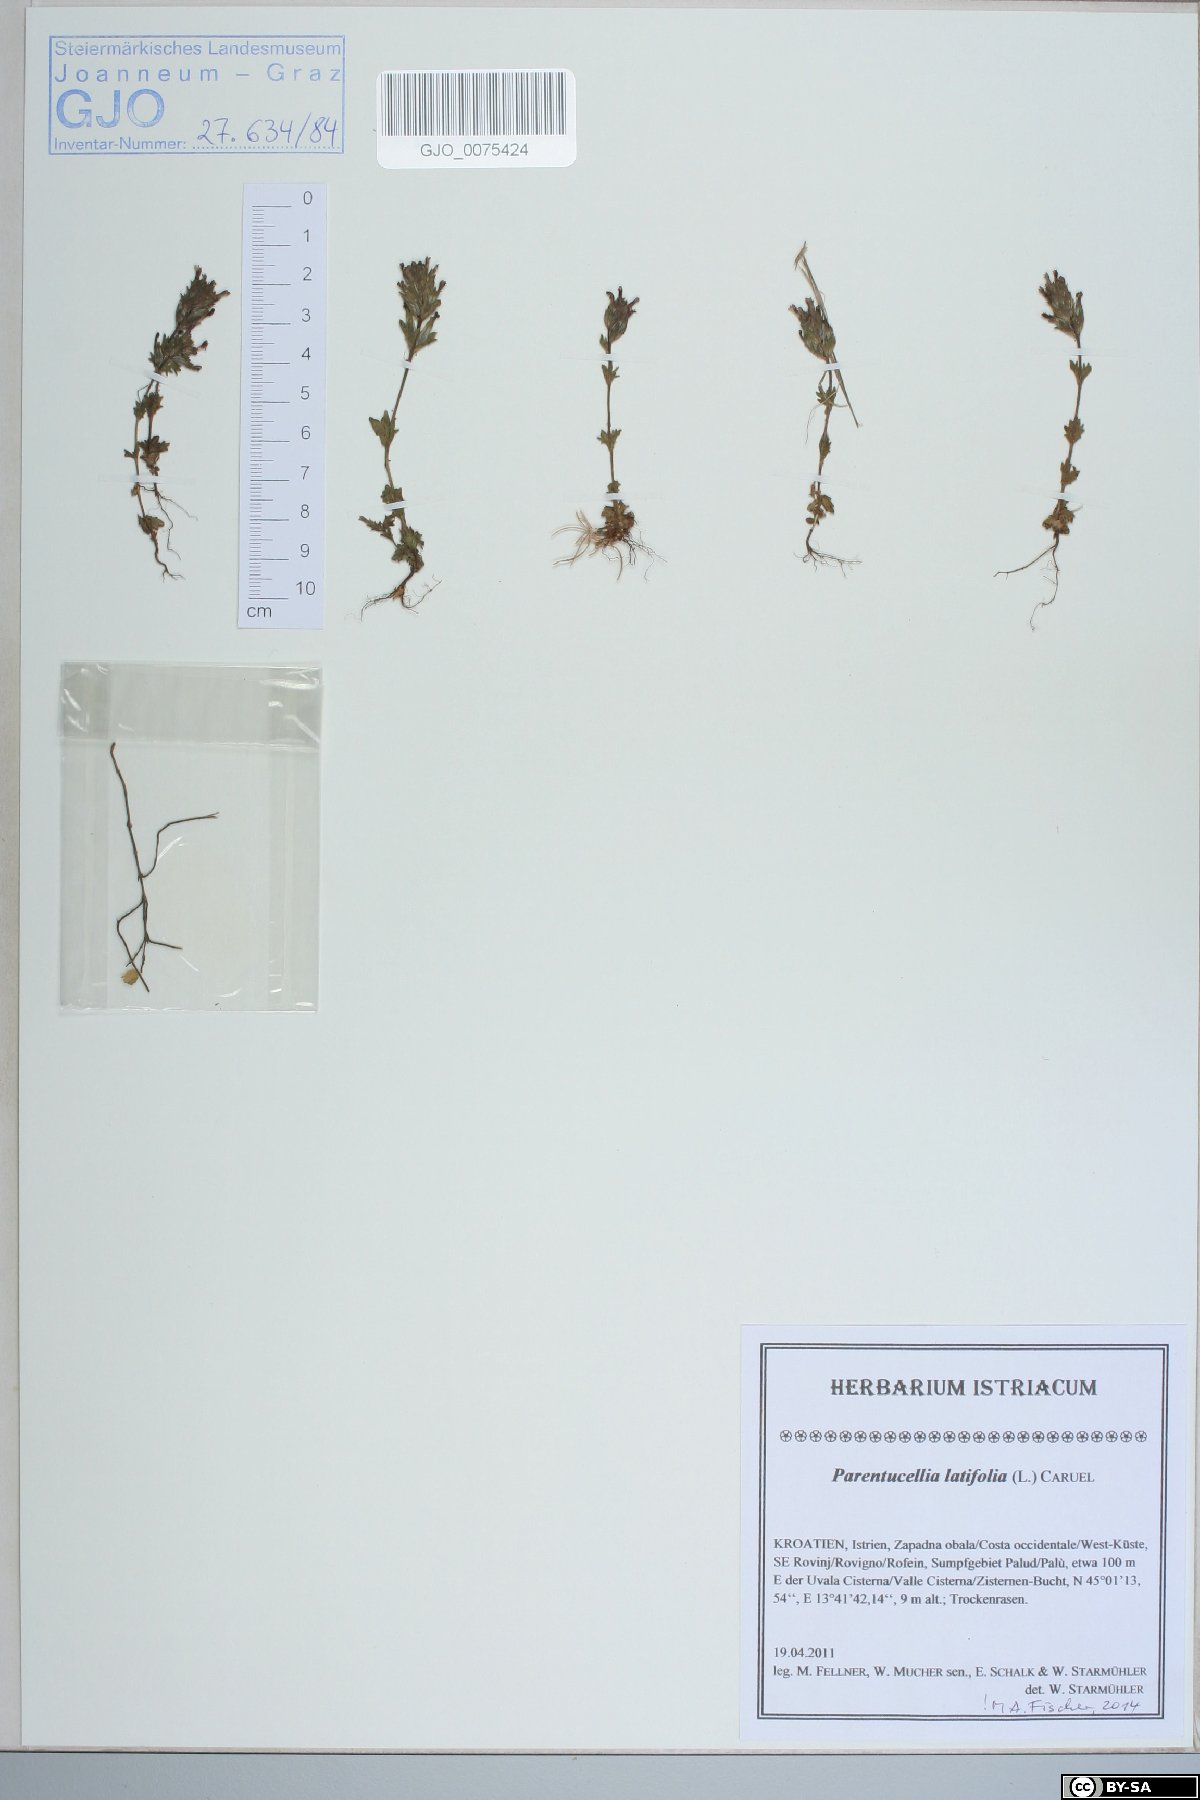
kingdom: Plantae
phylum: Tracheophyta
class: Magnoliopsida
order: Lamiales
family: Orobanchaceae
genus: Parentucellia
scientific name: Parentucellia latifolia
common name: Broadleaf glandweed
